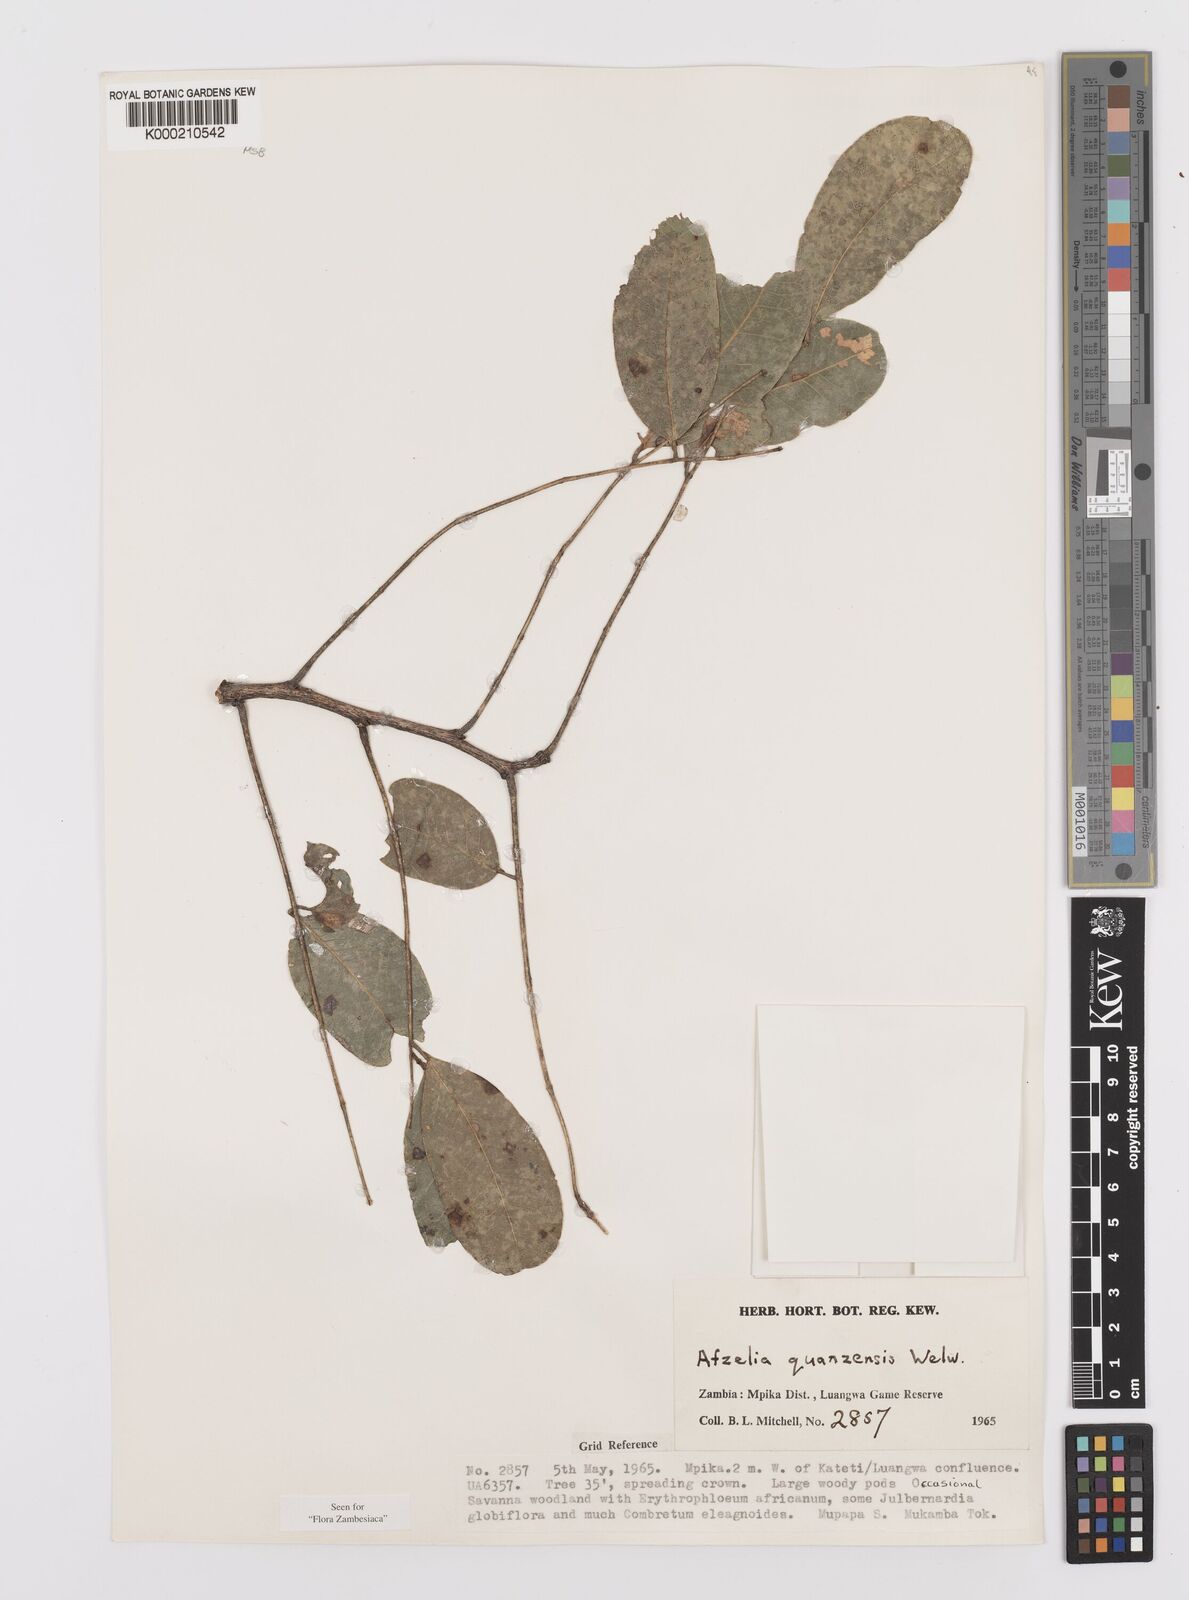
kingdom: Plantae
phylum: Tracheophyta
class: Magnoliopsida
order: Fabales
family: Fabaceae
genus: Afzelia
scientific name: Afzelia quanzensis
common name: Pod mahogany
